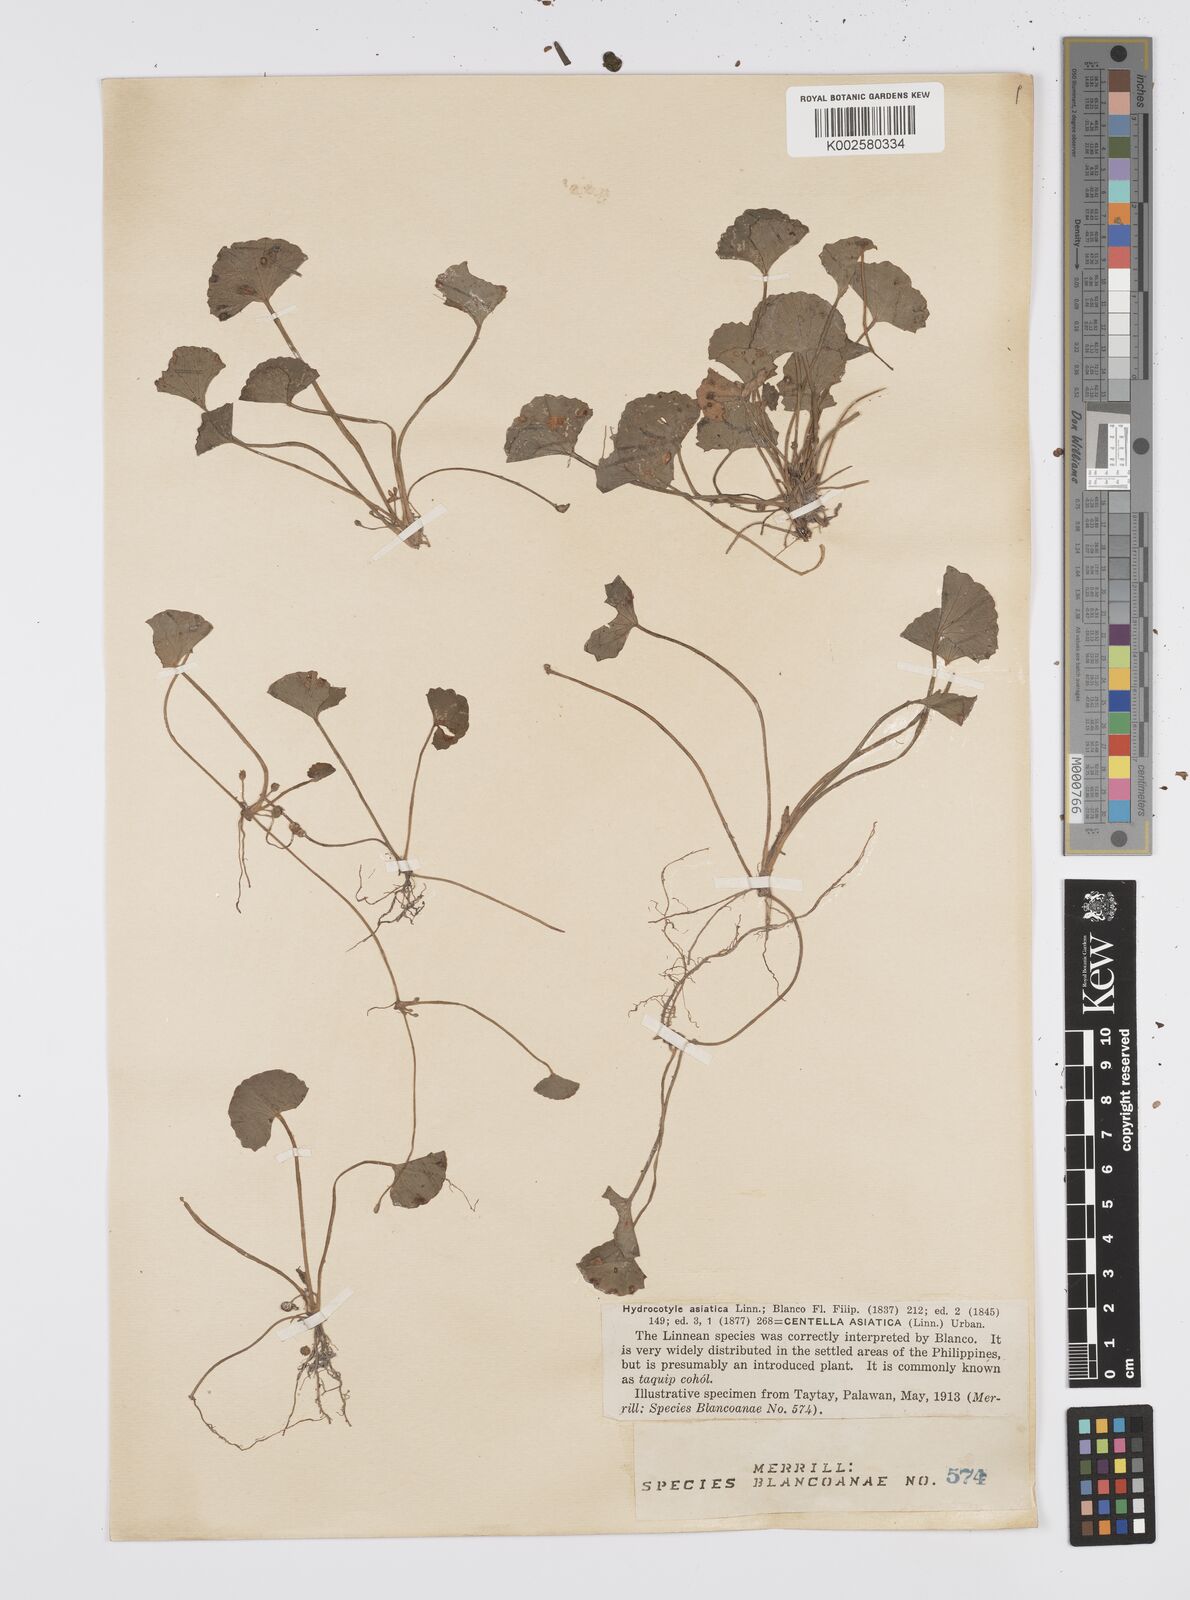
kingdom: Plantae
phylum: Tracheophyta
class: Magnoliopsida
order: Apiales
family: Apiaceae
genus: Centella
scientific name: Centella asiatica
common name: Spadeleaf
